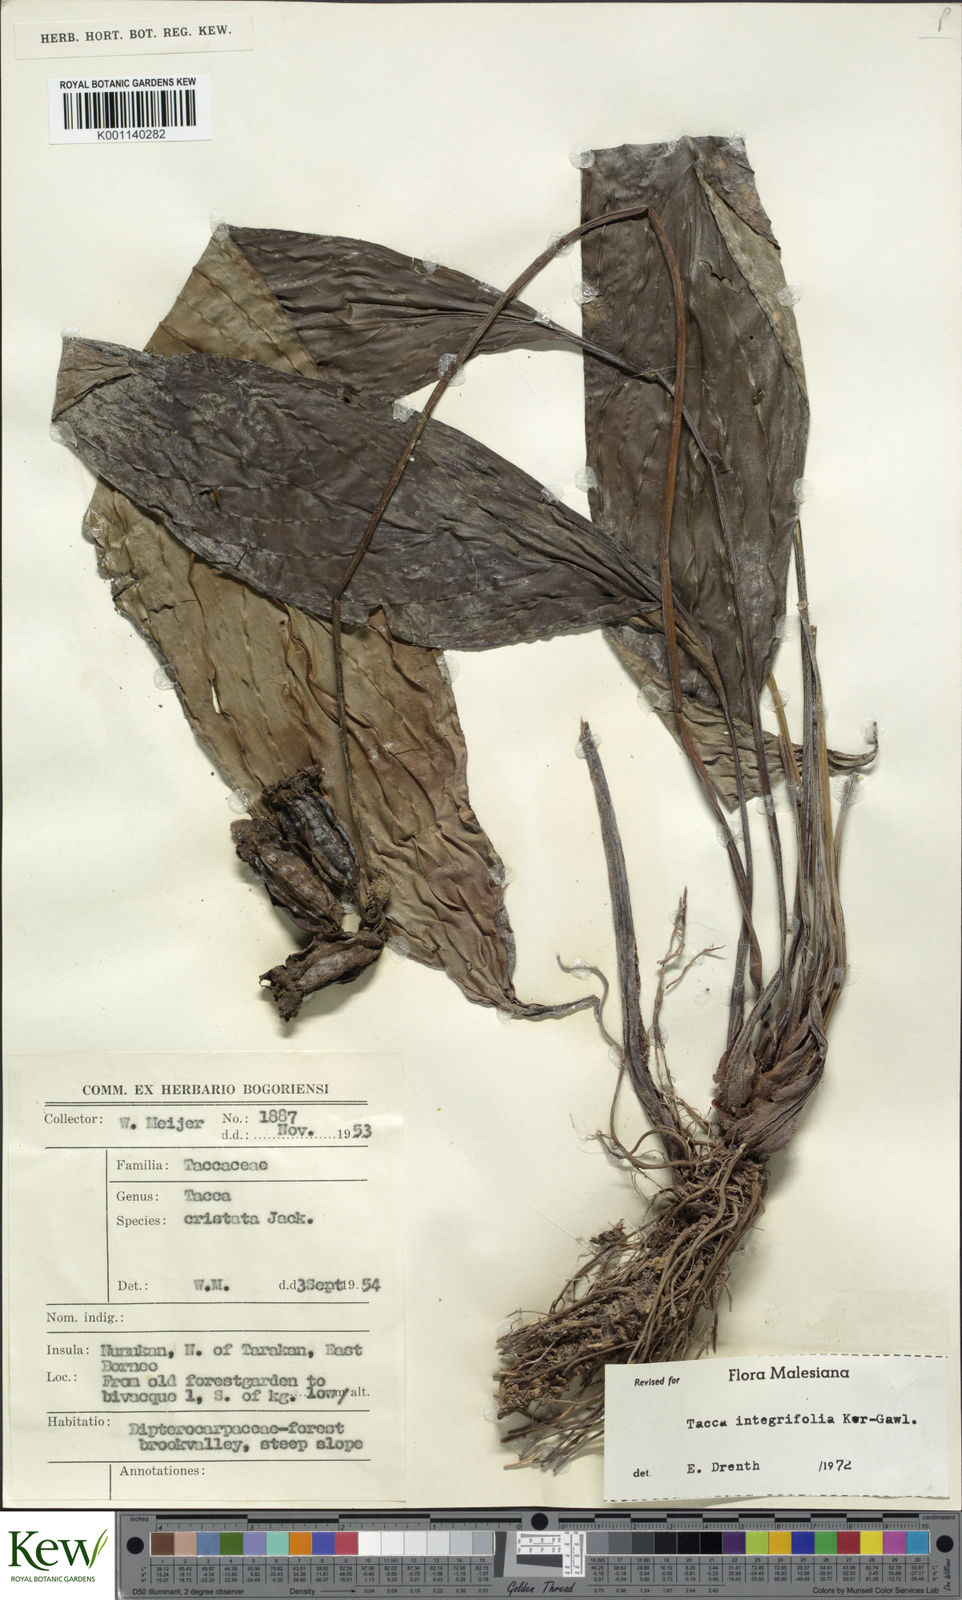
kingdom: Plantae
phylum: Tracheophyta
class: Liliopsida
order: Dioscoreales
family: Dioscoreaceae
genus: Tacca
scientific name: Tacca integrifolia
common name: Batplant
